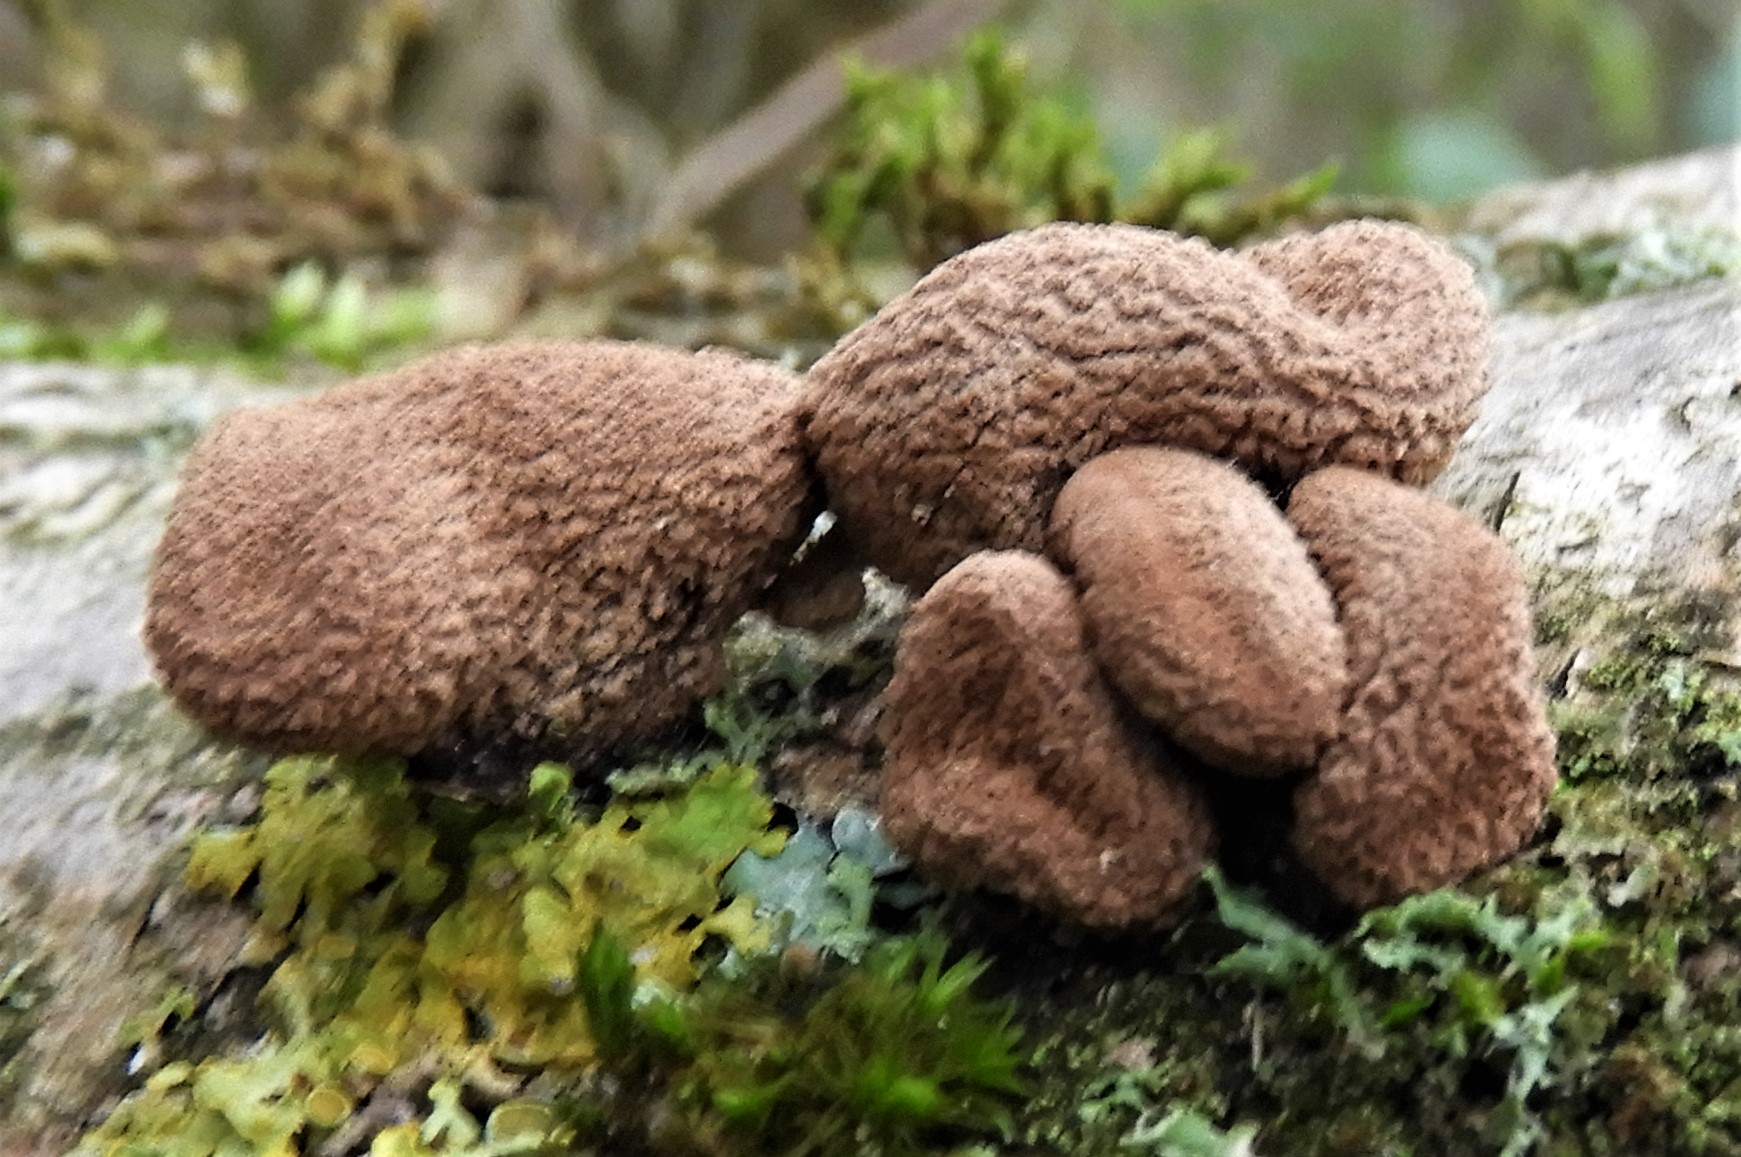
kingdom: Fungi
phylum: Ascomycota
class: Leotiomycetes
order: Helotiales
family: Cenangiaceae
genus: Encoelia
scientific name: Encoelia furfuracea
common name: hassel-læderskive
